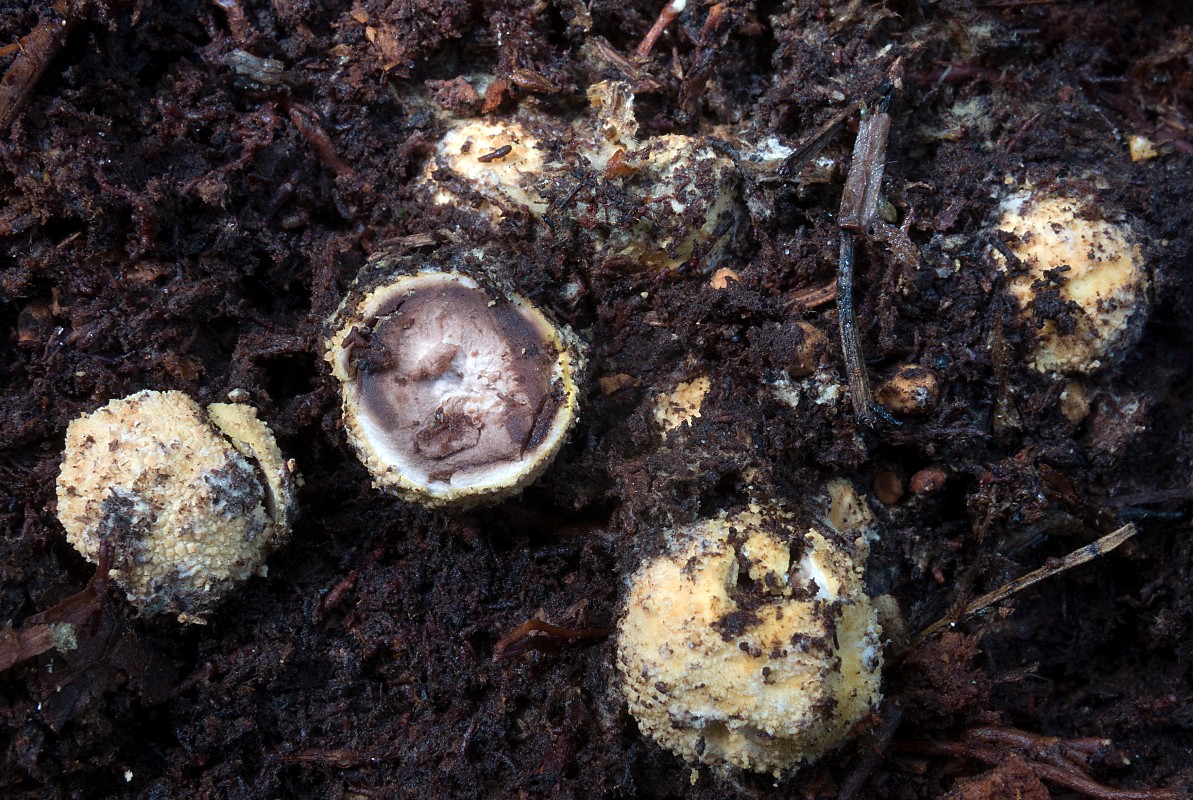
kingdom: Fungi
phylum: Ascomycota
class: Eurotiomycetes
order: Eurotiales
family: Elaphomycetaceae
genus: Elaphomyces
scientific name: Elaphomyces granulatus
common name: grynet hjortetrøffel
